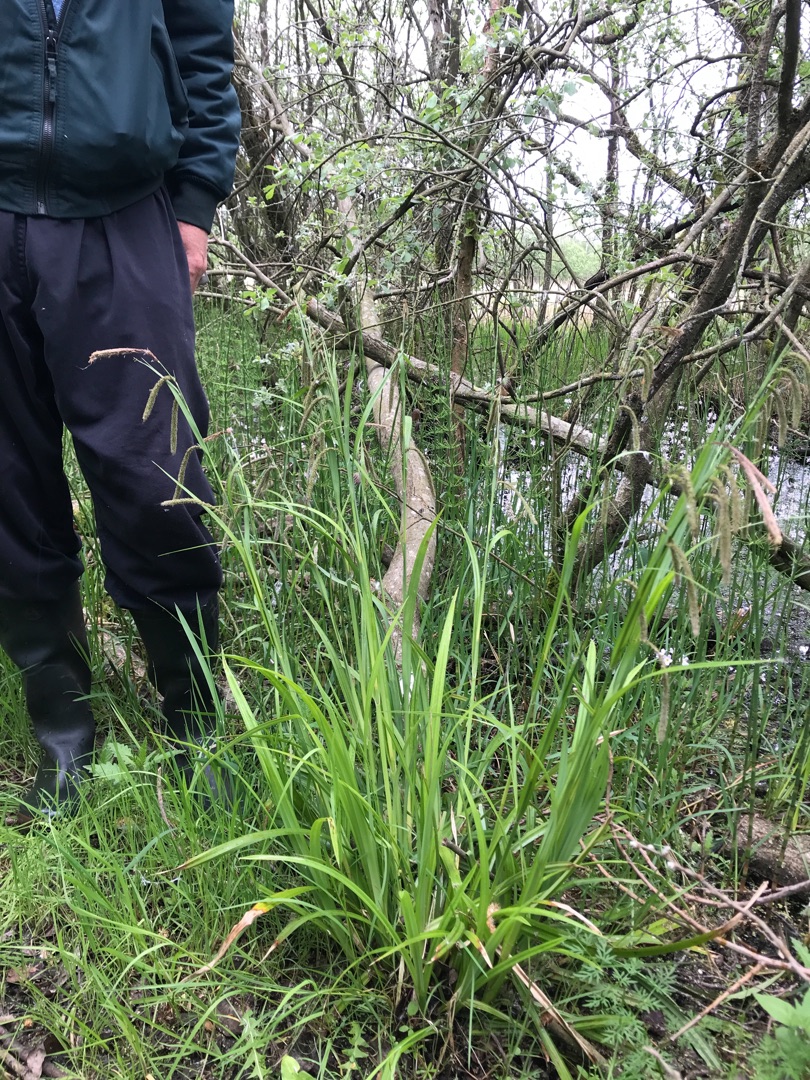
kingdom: Plantae
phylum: Tracheophyta
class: Liliopsida
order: Poales
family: Cyperaceae
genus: Carex
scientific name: Carex pendula
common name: Kæmpe-star
